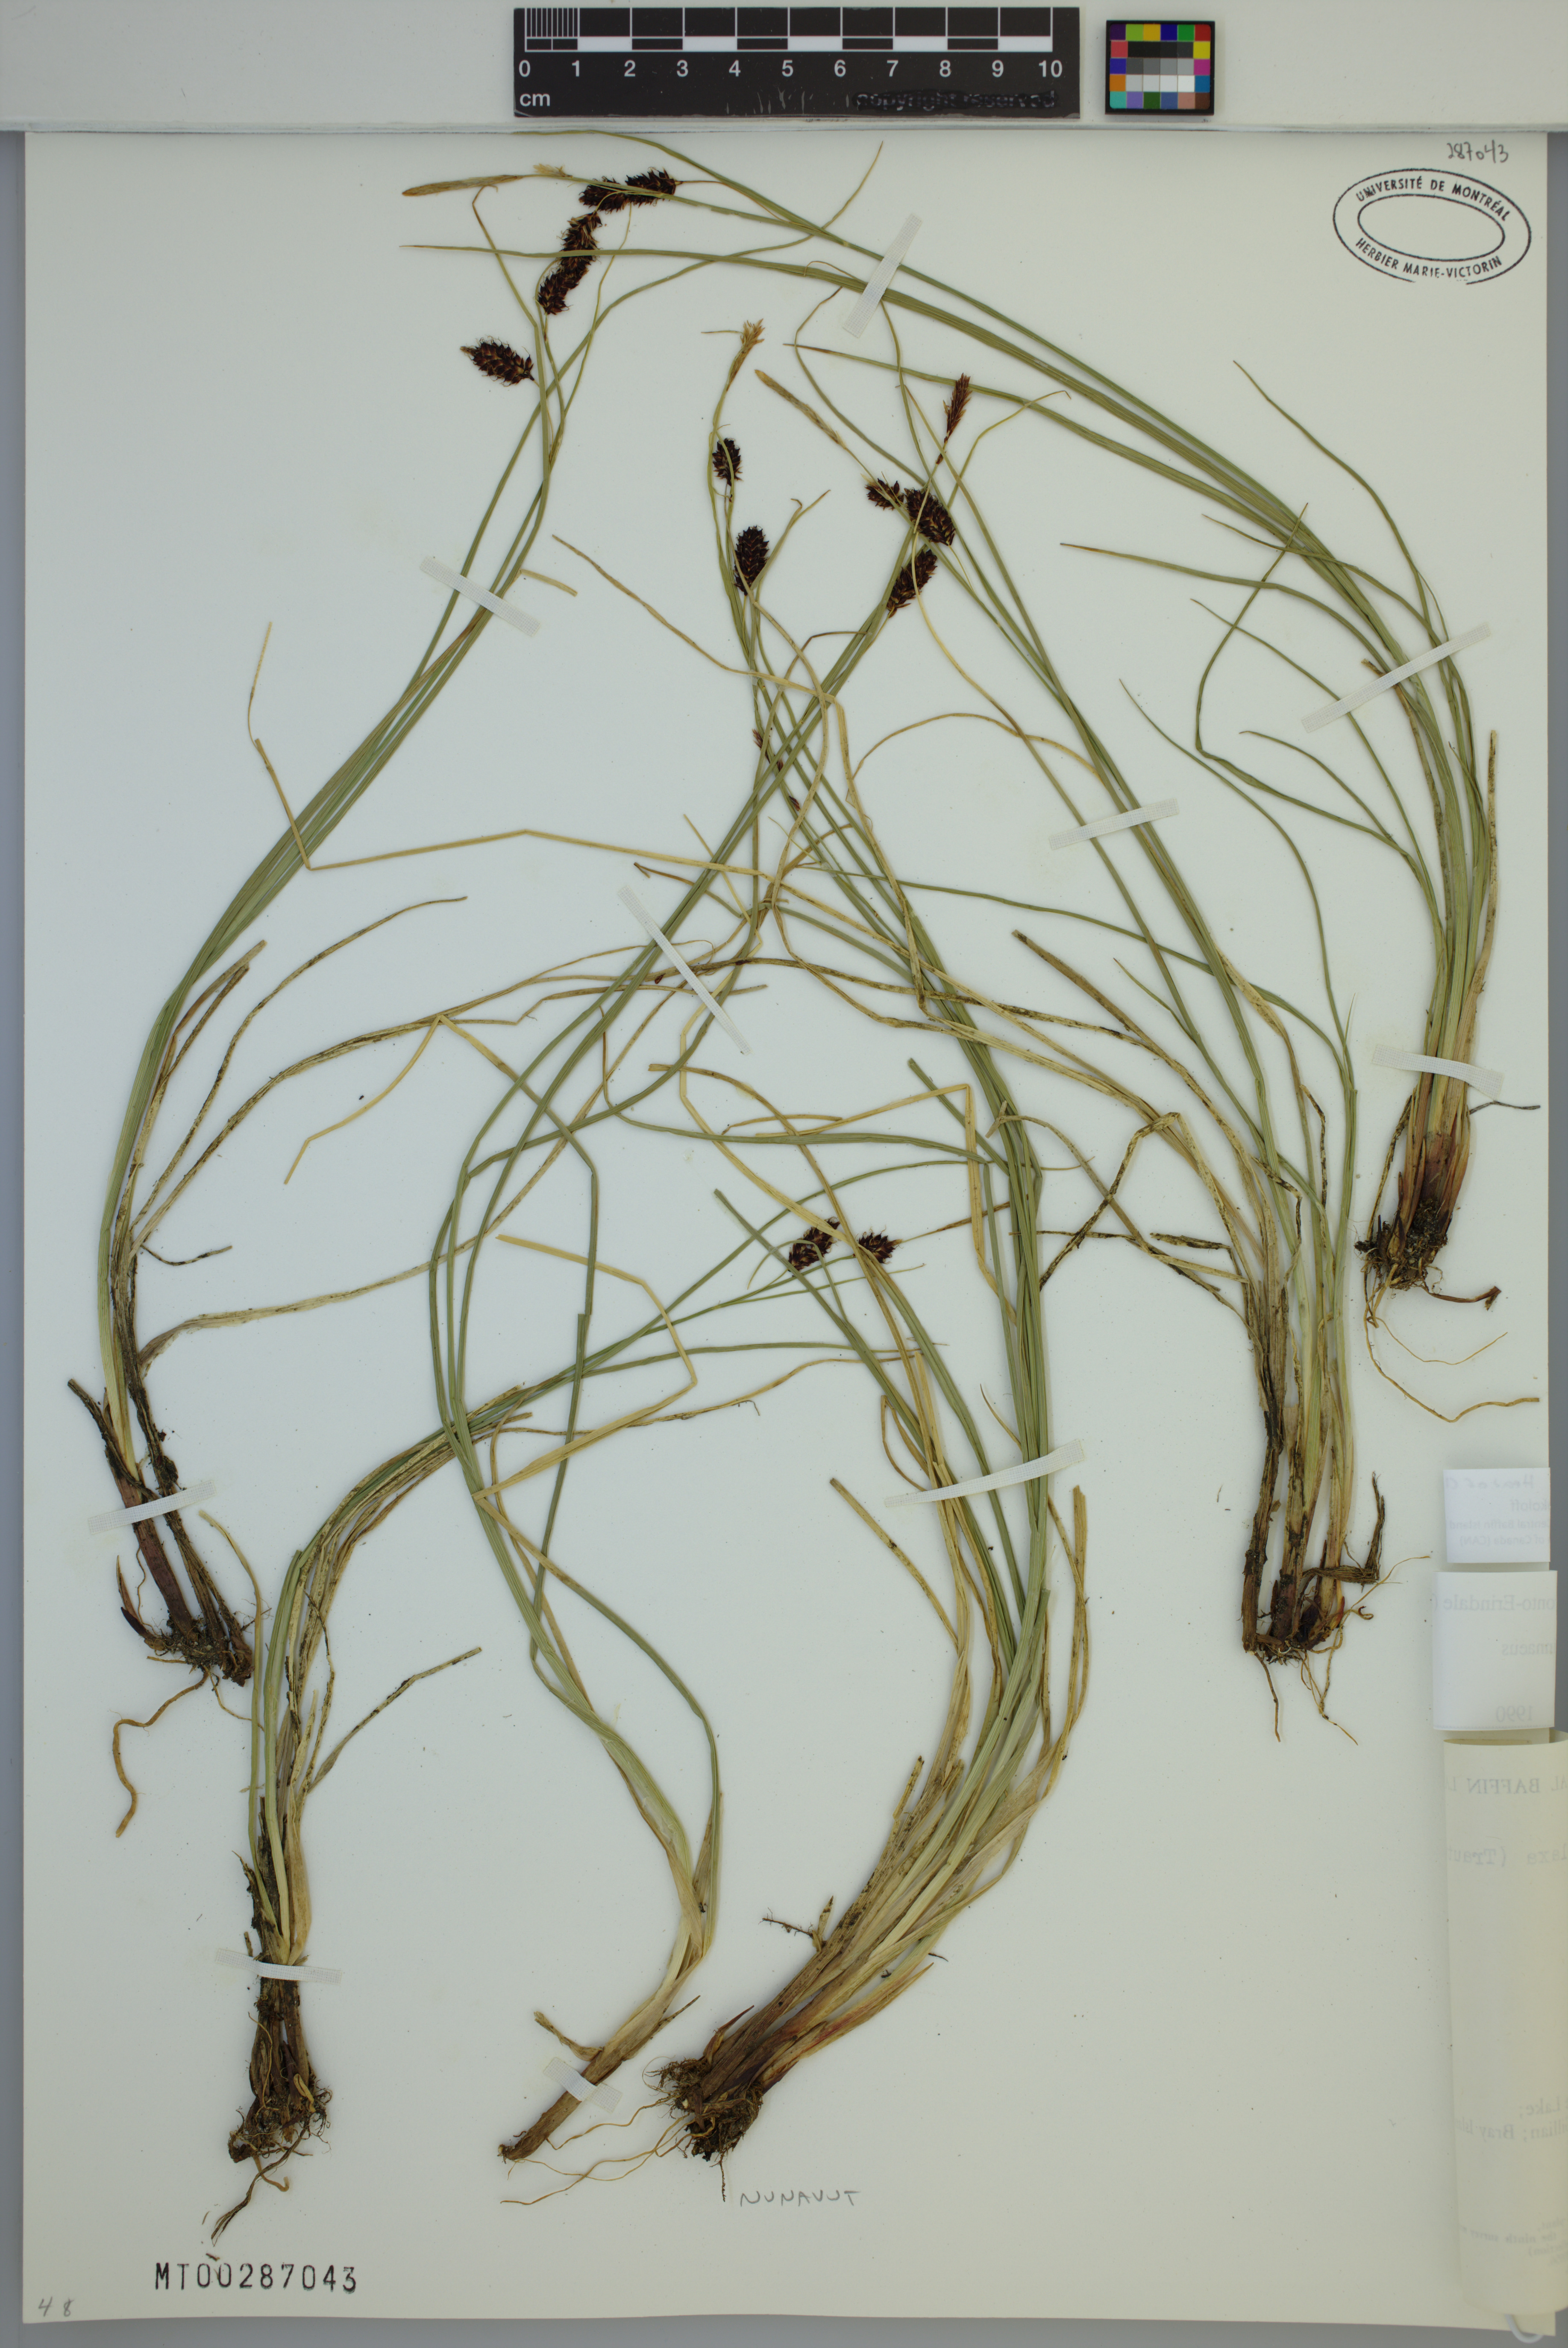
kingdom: Plantae
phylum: Tracheophyta
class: Liliopsida
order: Poales
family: Cyperaceae
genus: Carex
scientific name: Carex saxatilis
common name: Russet sedge
